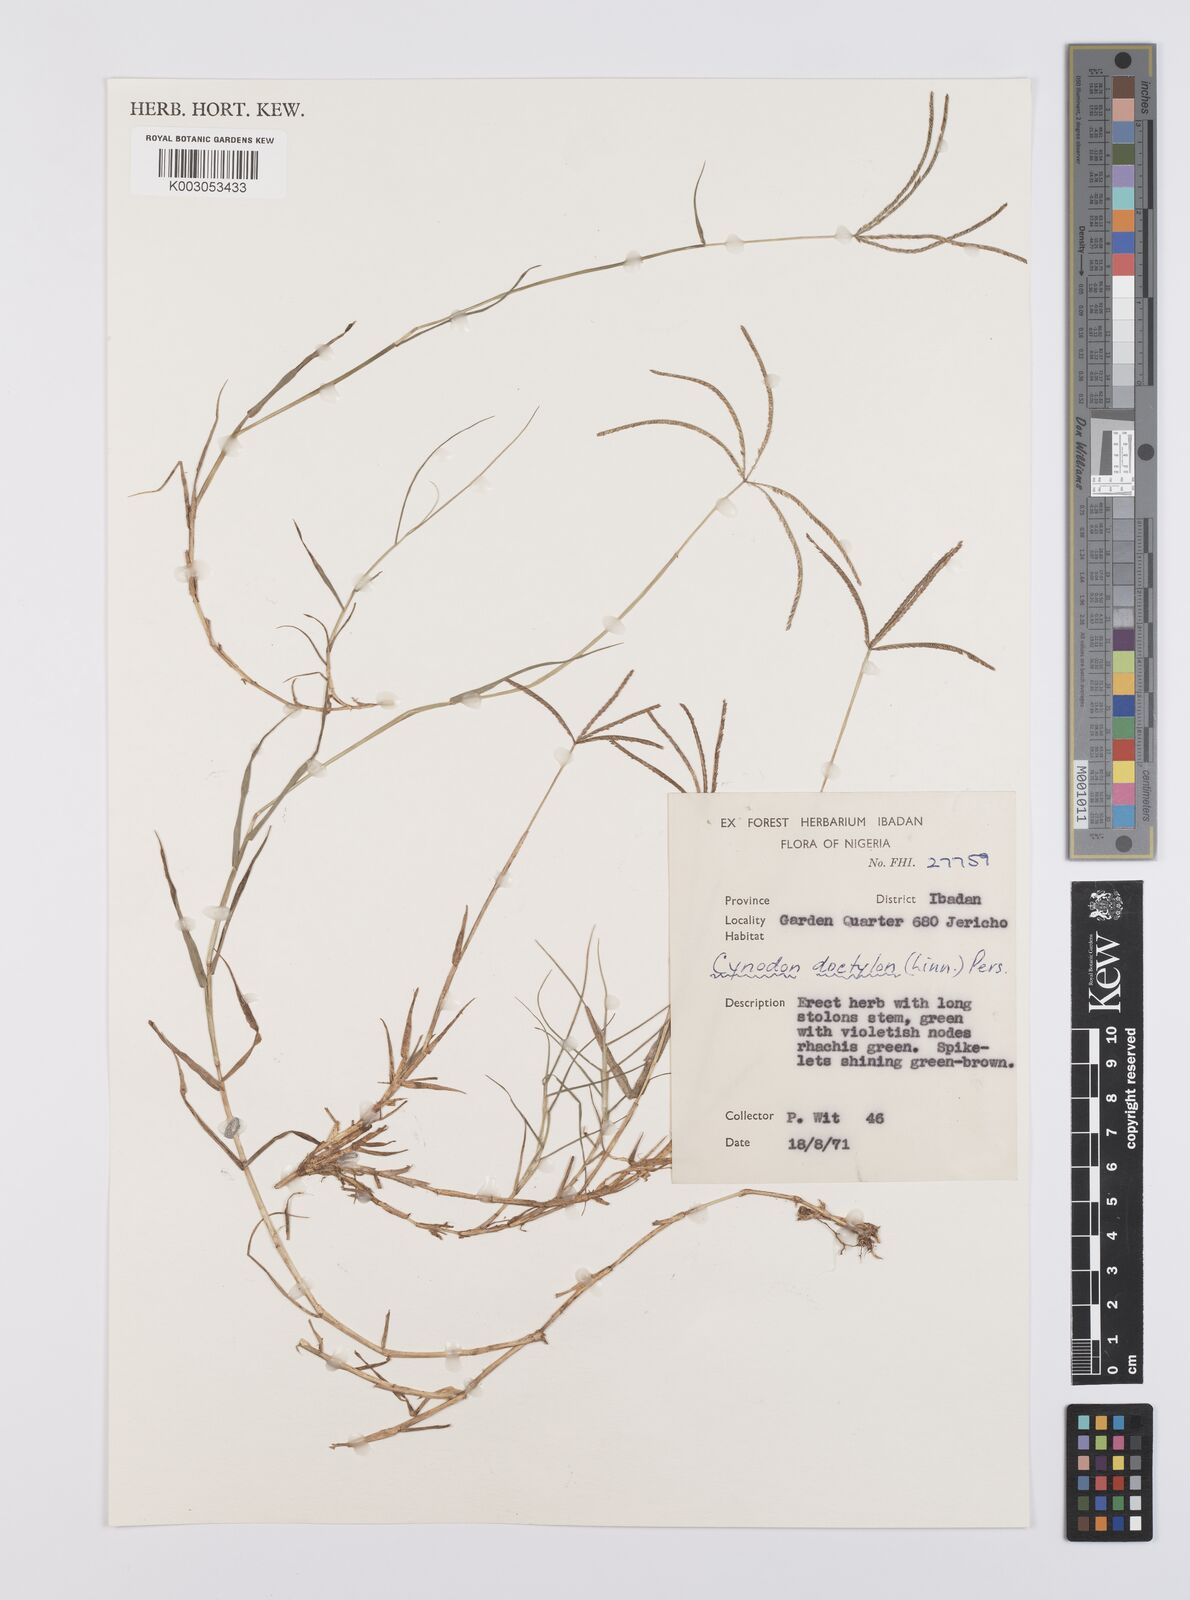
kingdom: Plantae
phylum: Tracheophyta
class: Liliopsida
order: Poales
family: Poaceae
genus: Cynodon
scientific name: Cynodon dactylon
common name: Bermuda grass
